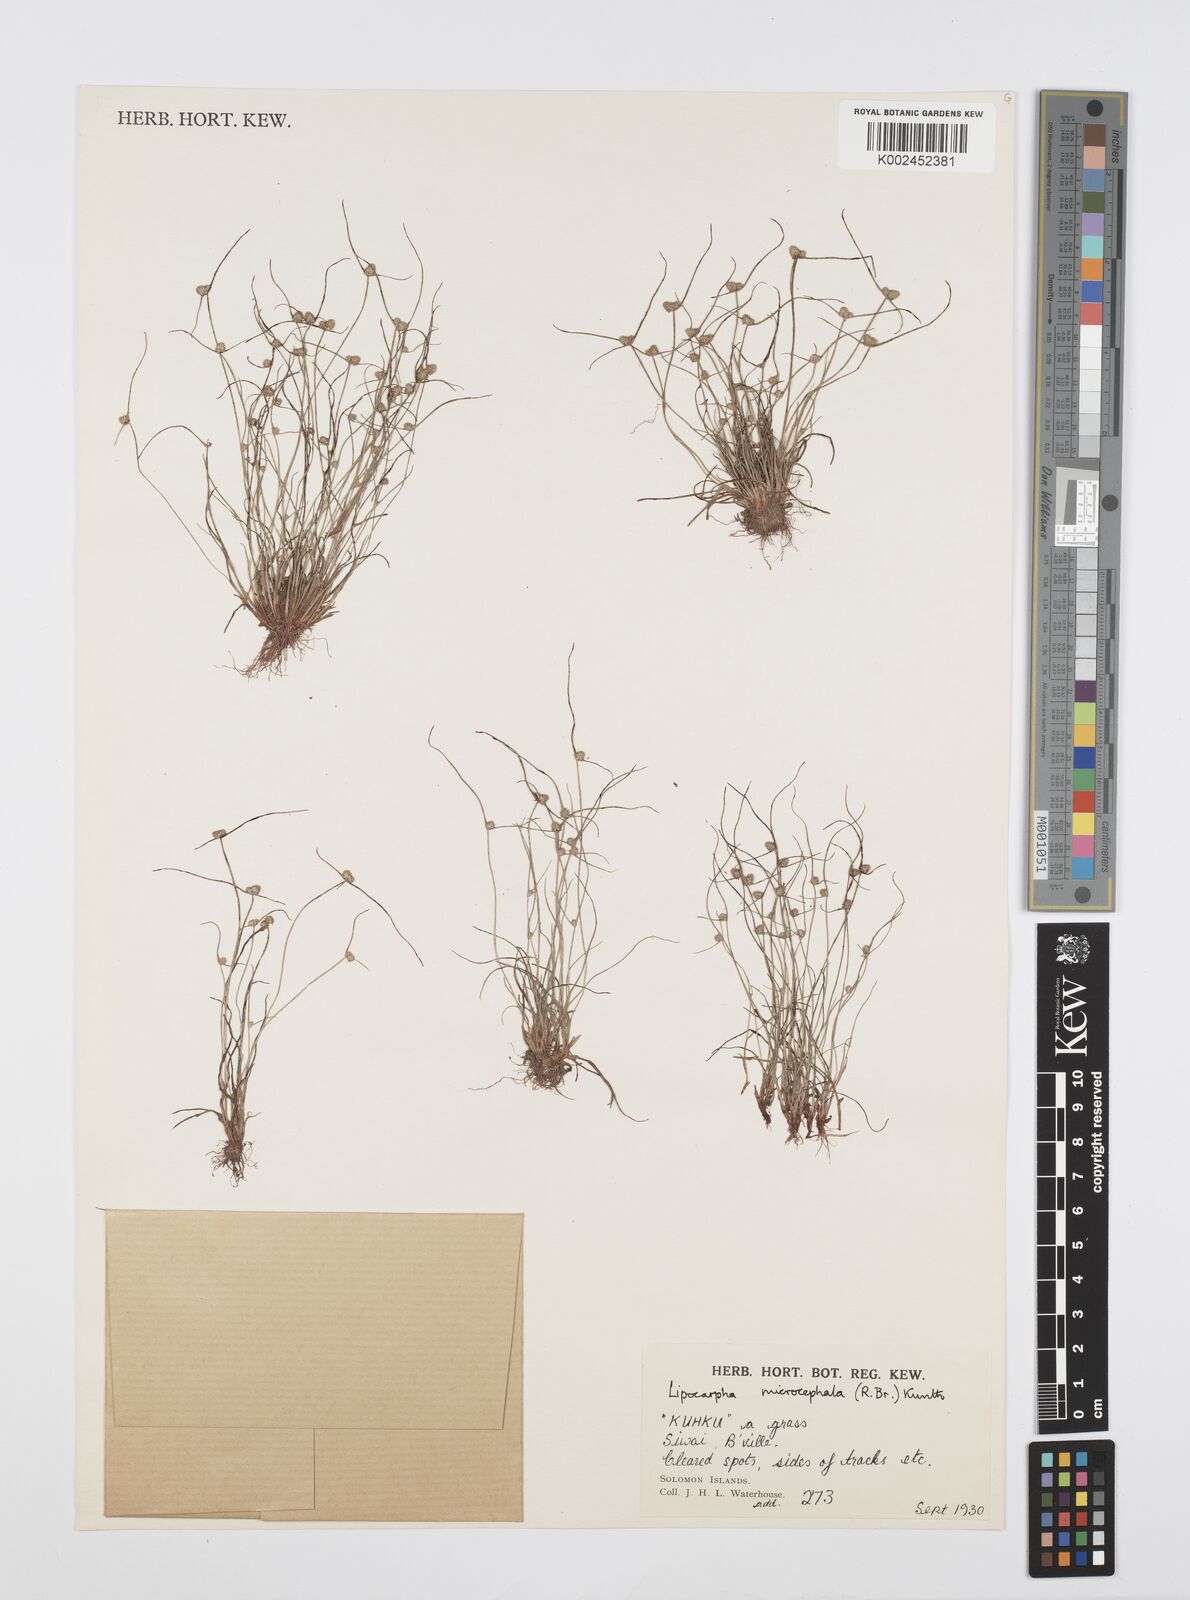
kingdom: Plantae
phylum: Tracheophyta
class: Liliopsida
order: Poales
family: Cyperaceae
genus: Cyperus
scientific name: Cyperus microcephalus
